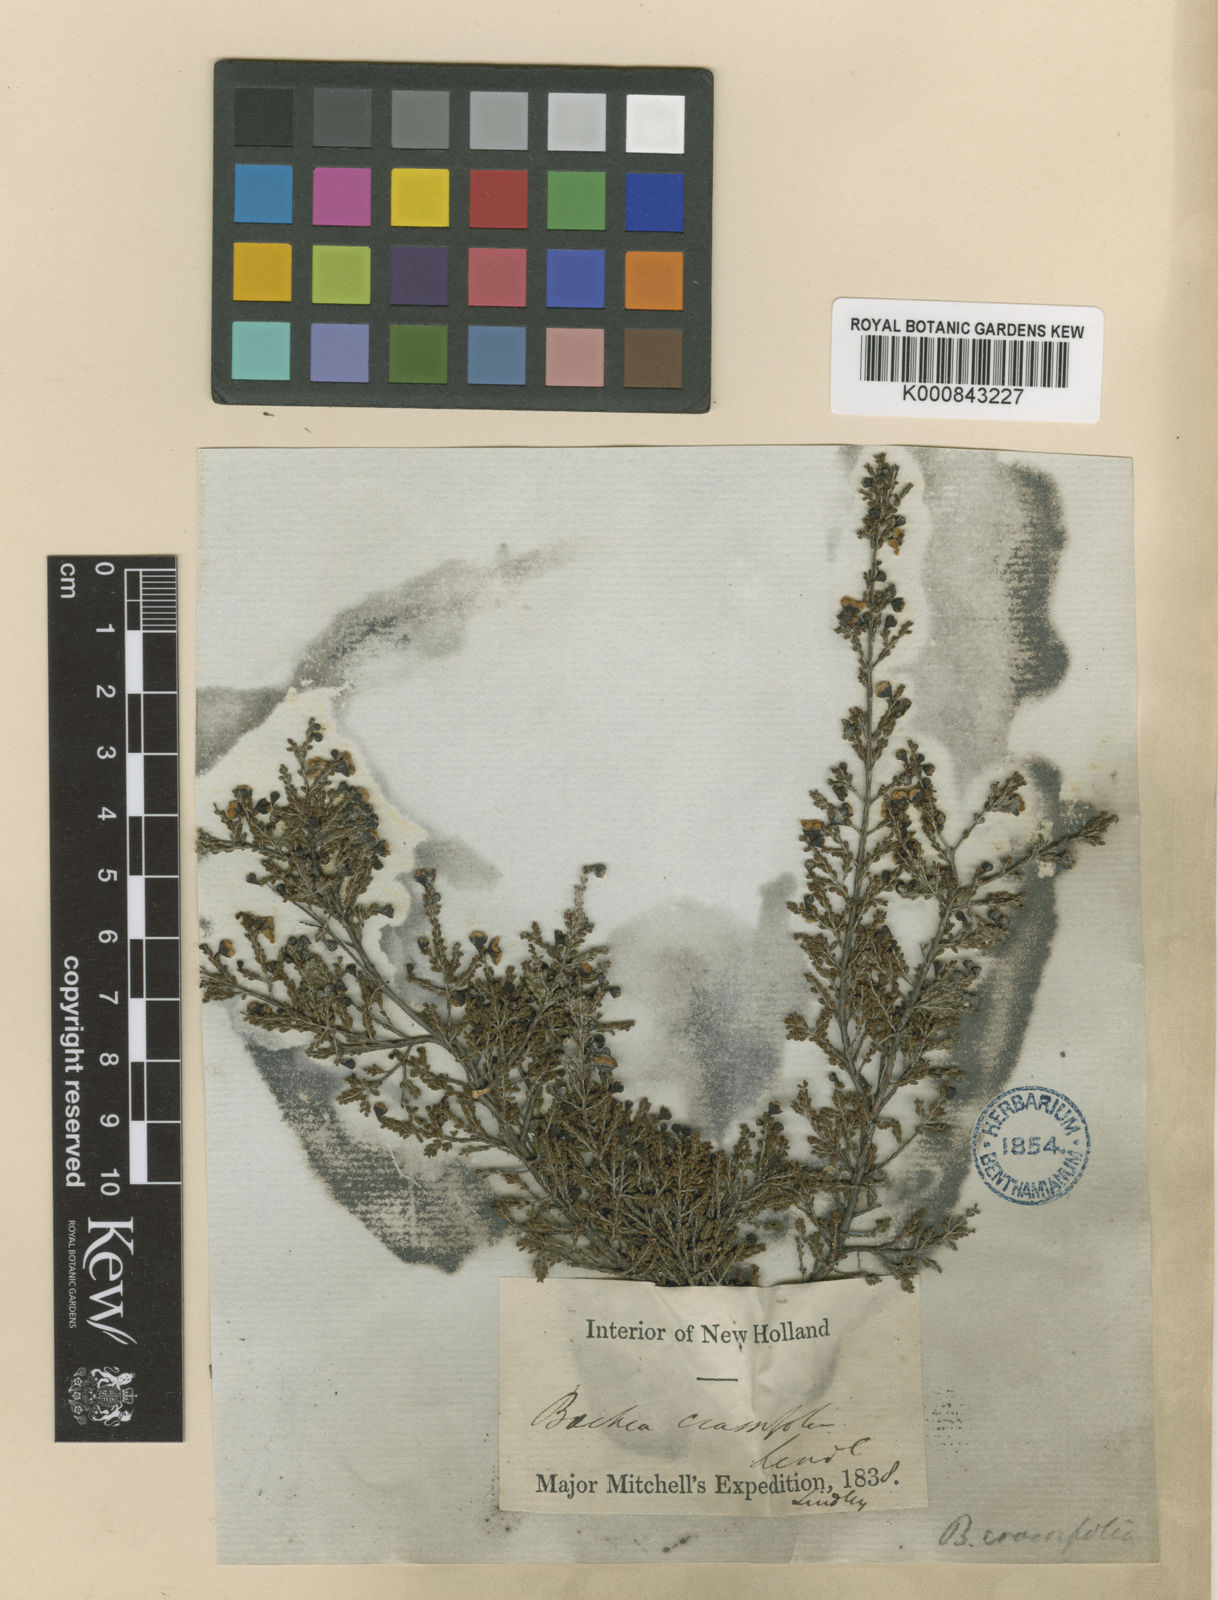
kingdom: Plantae
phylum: Tracheophyta
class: Magnoliopsida
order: Myrtales
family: Myrtaceae
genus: Rinzia
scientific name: Rinzia orientalis
